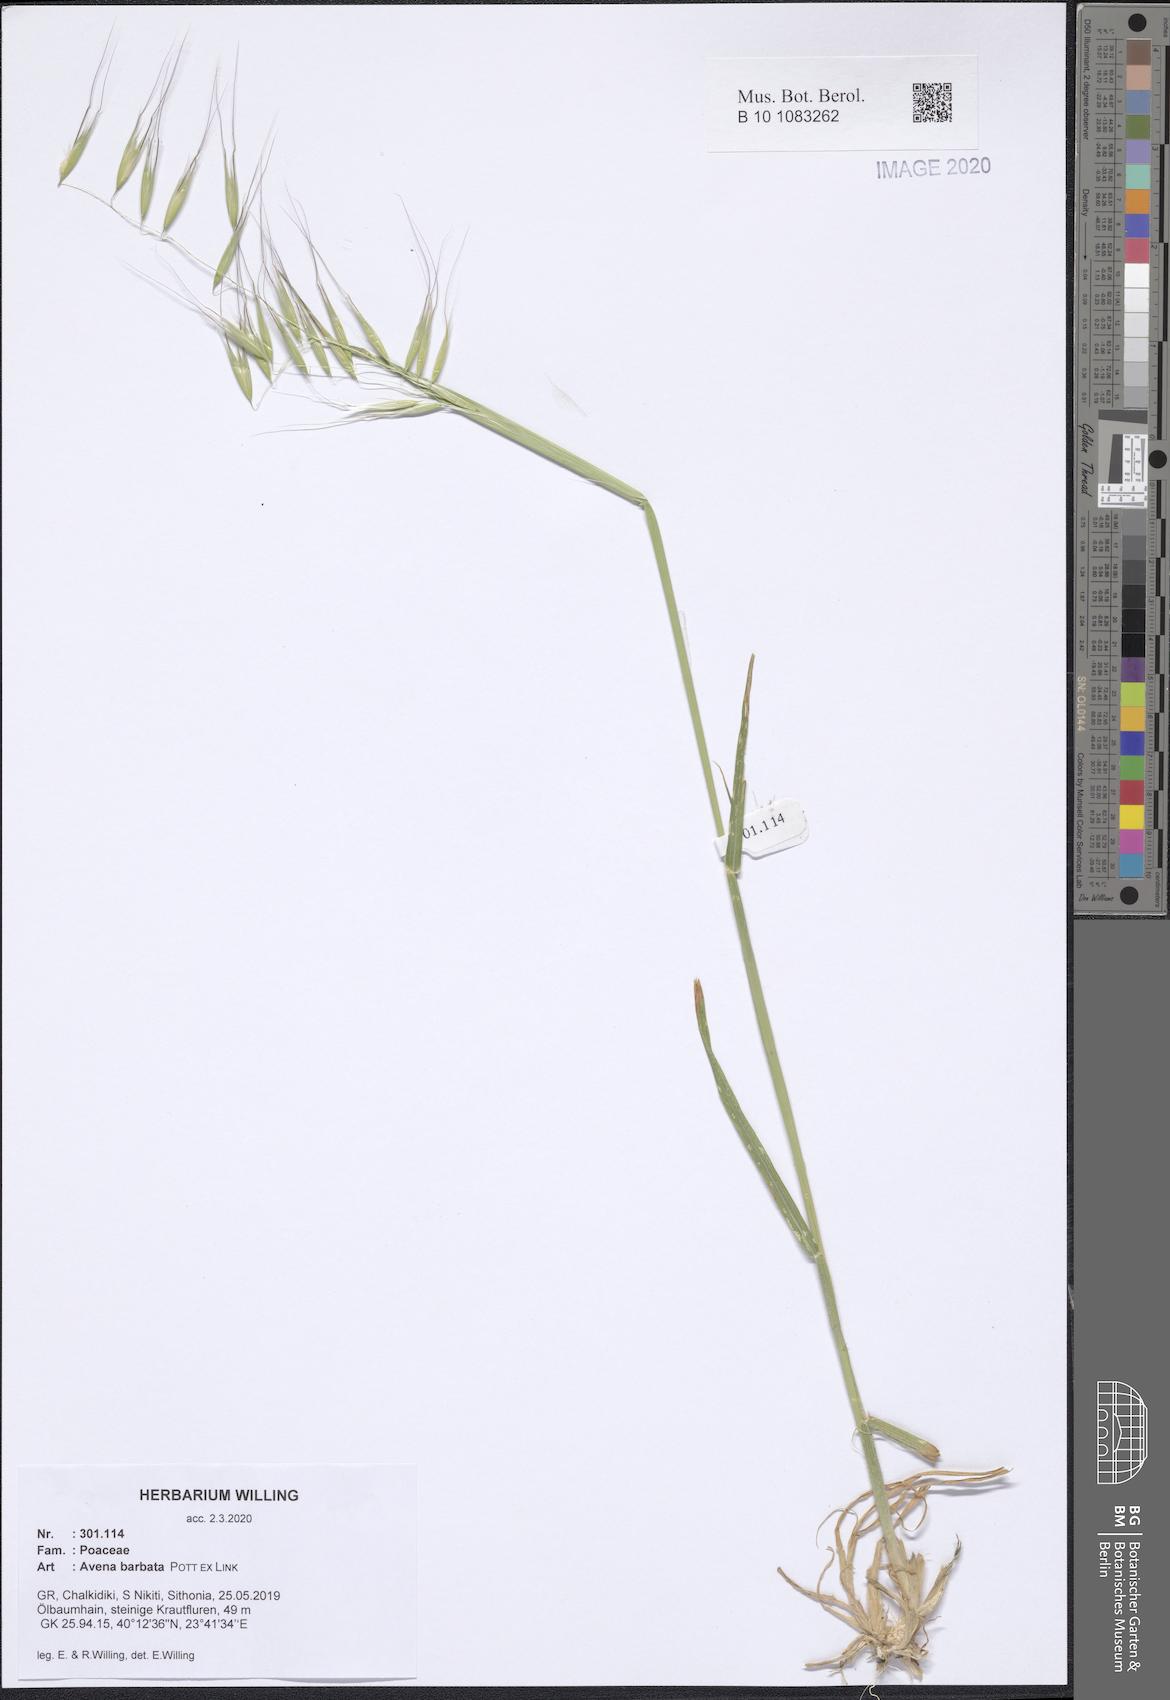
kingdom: Plantae
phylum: Tracheophyta
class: Liliopsida
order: Poales
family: Poaceae
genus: Avena
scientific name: Avena barbata
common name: Slender oat
